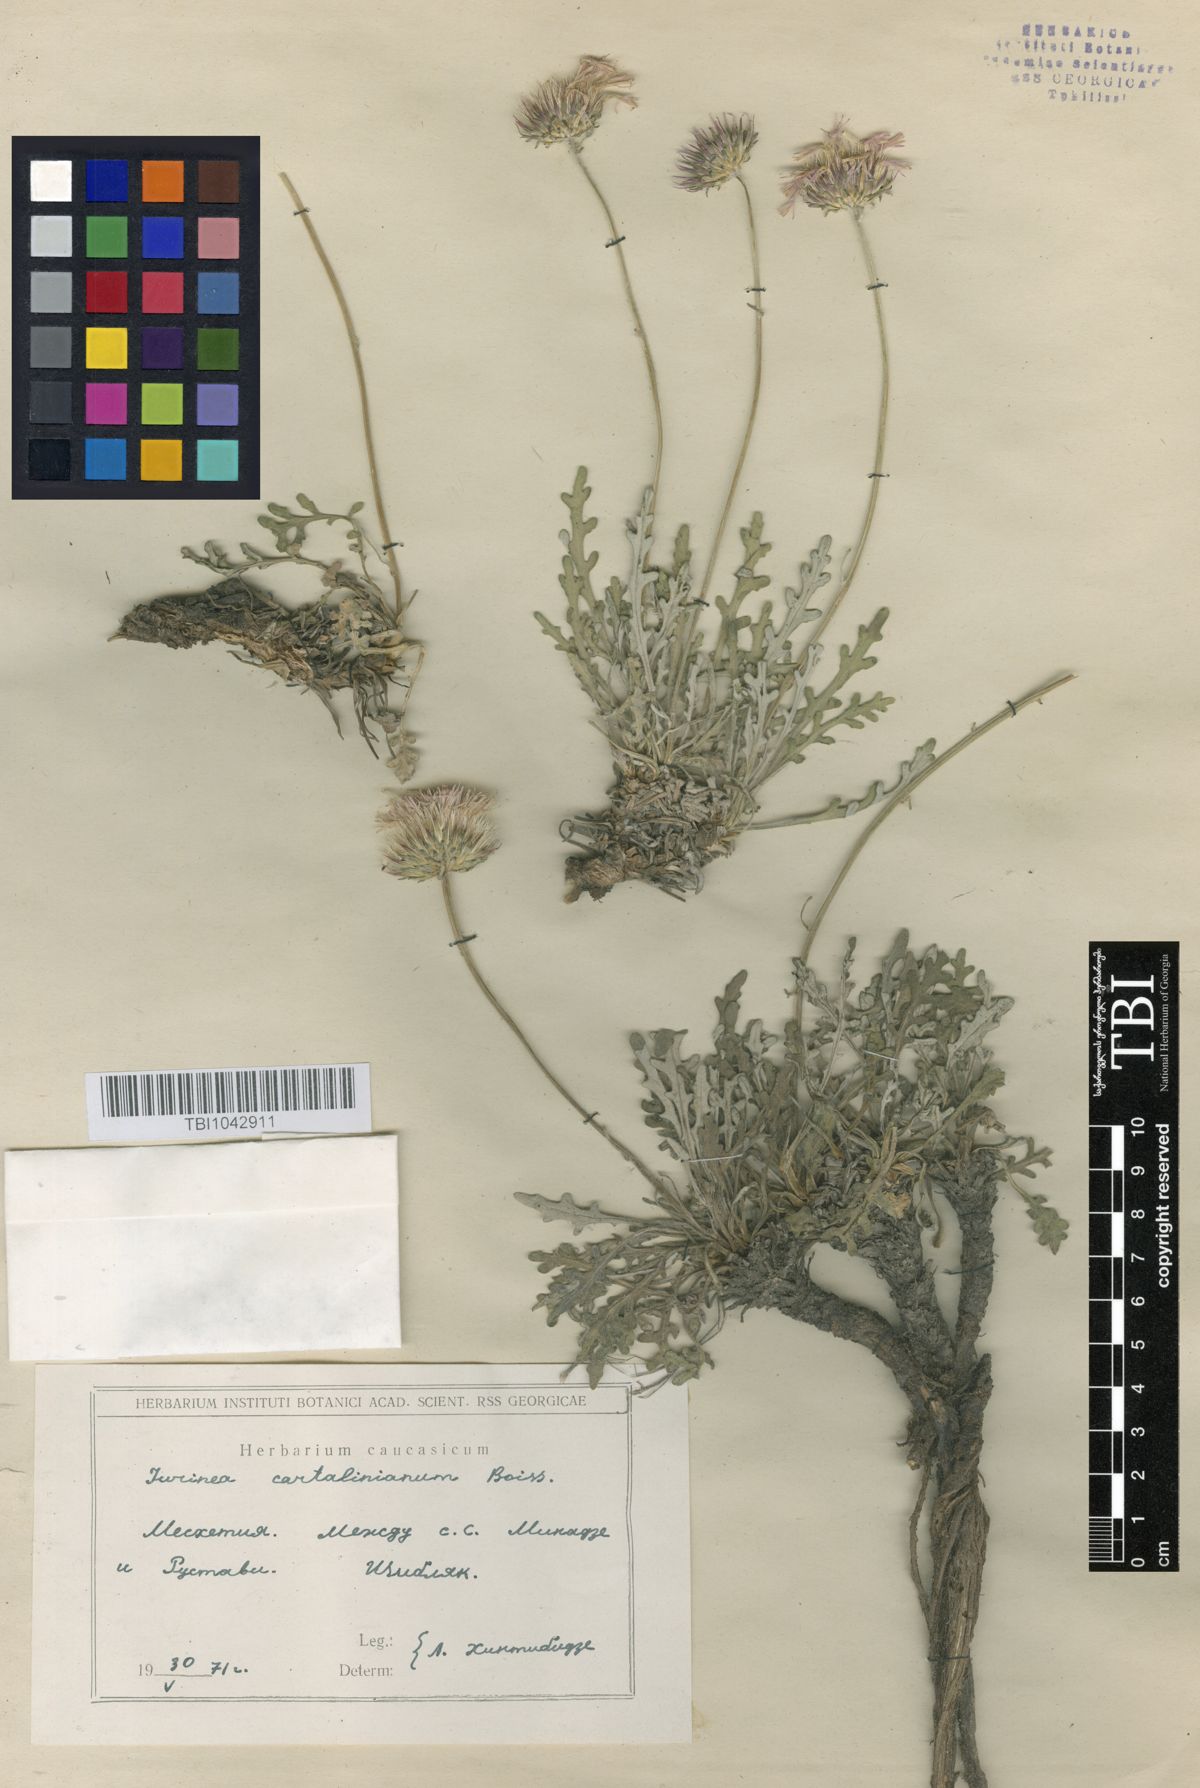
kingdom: Plantae
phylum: Tracheophyta
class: Magnoliopsida
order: Asterales
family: Asteraceae
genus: Jurinea
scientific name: Jurinea cartaliniana
